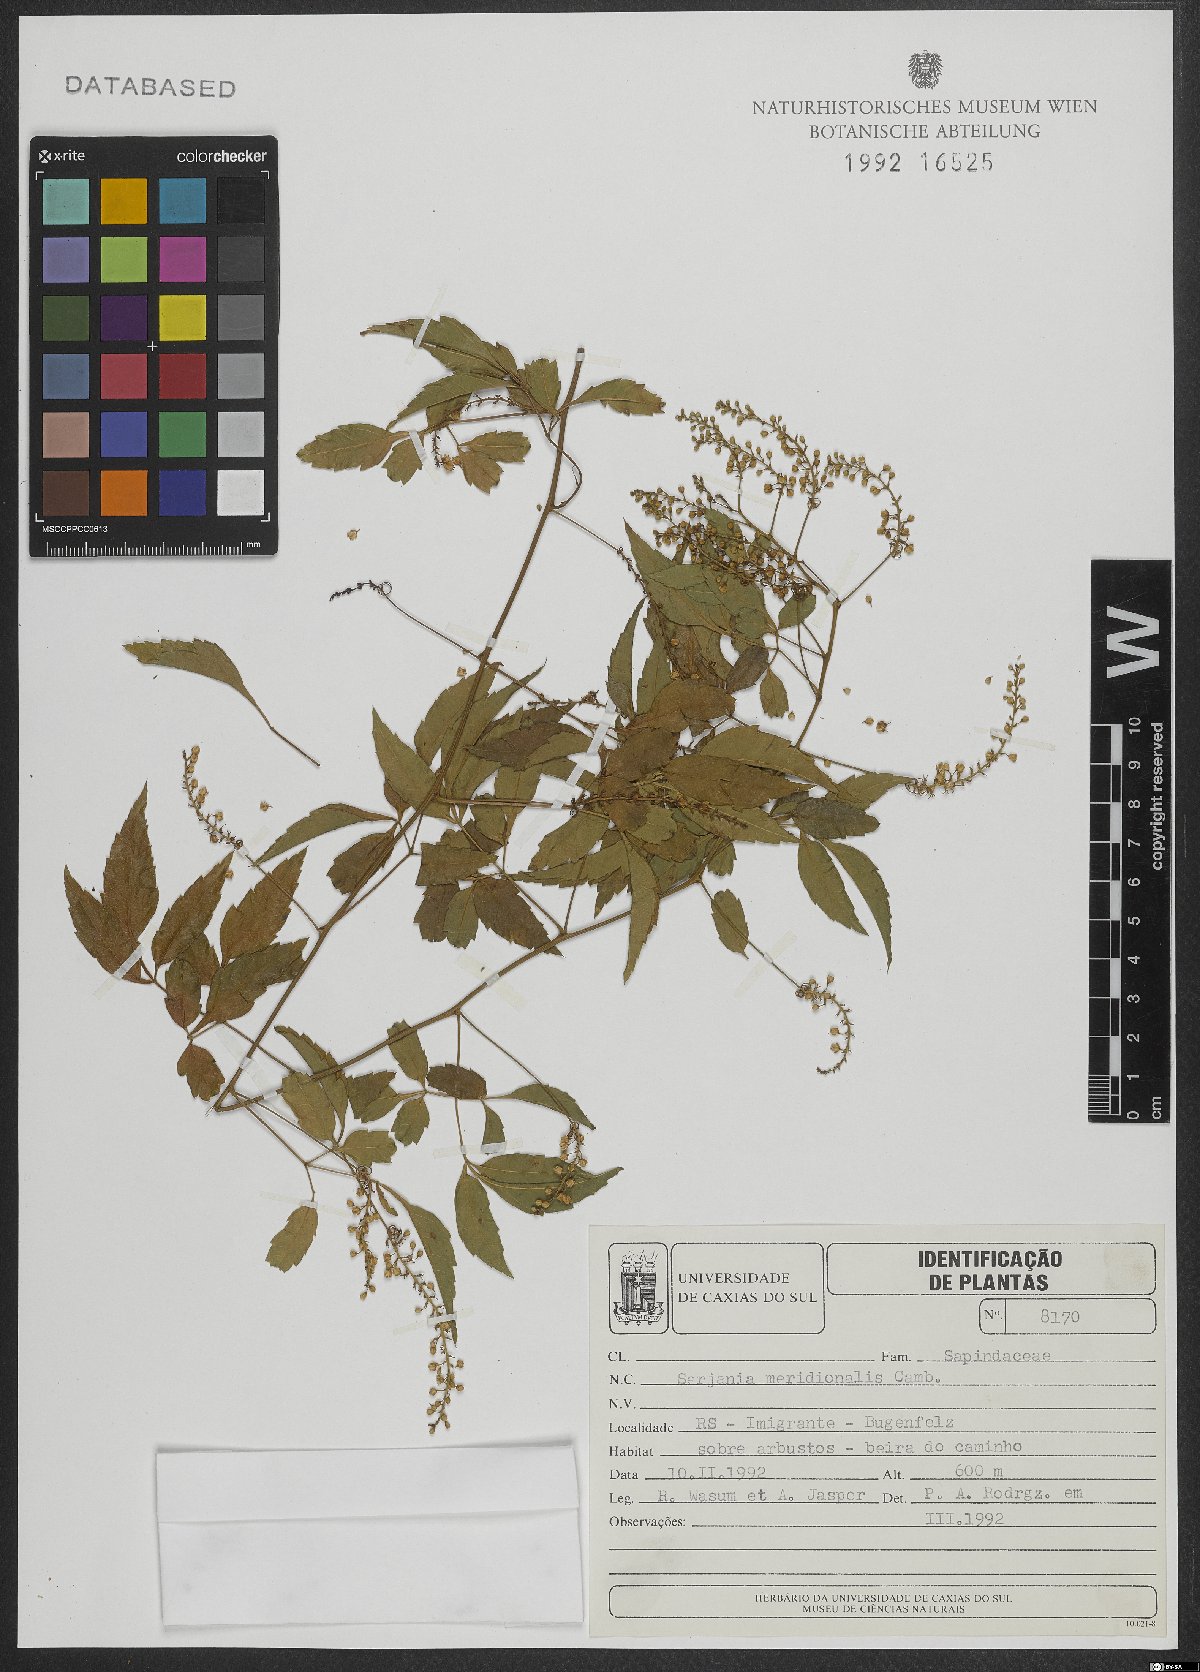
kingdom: Plantae
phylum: Tracheophyta
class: Magnoliopsida
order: Sapindales
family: Sapindaceae
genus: Serjania
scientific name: Serjania meridionalis
